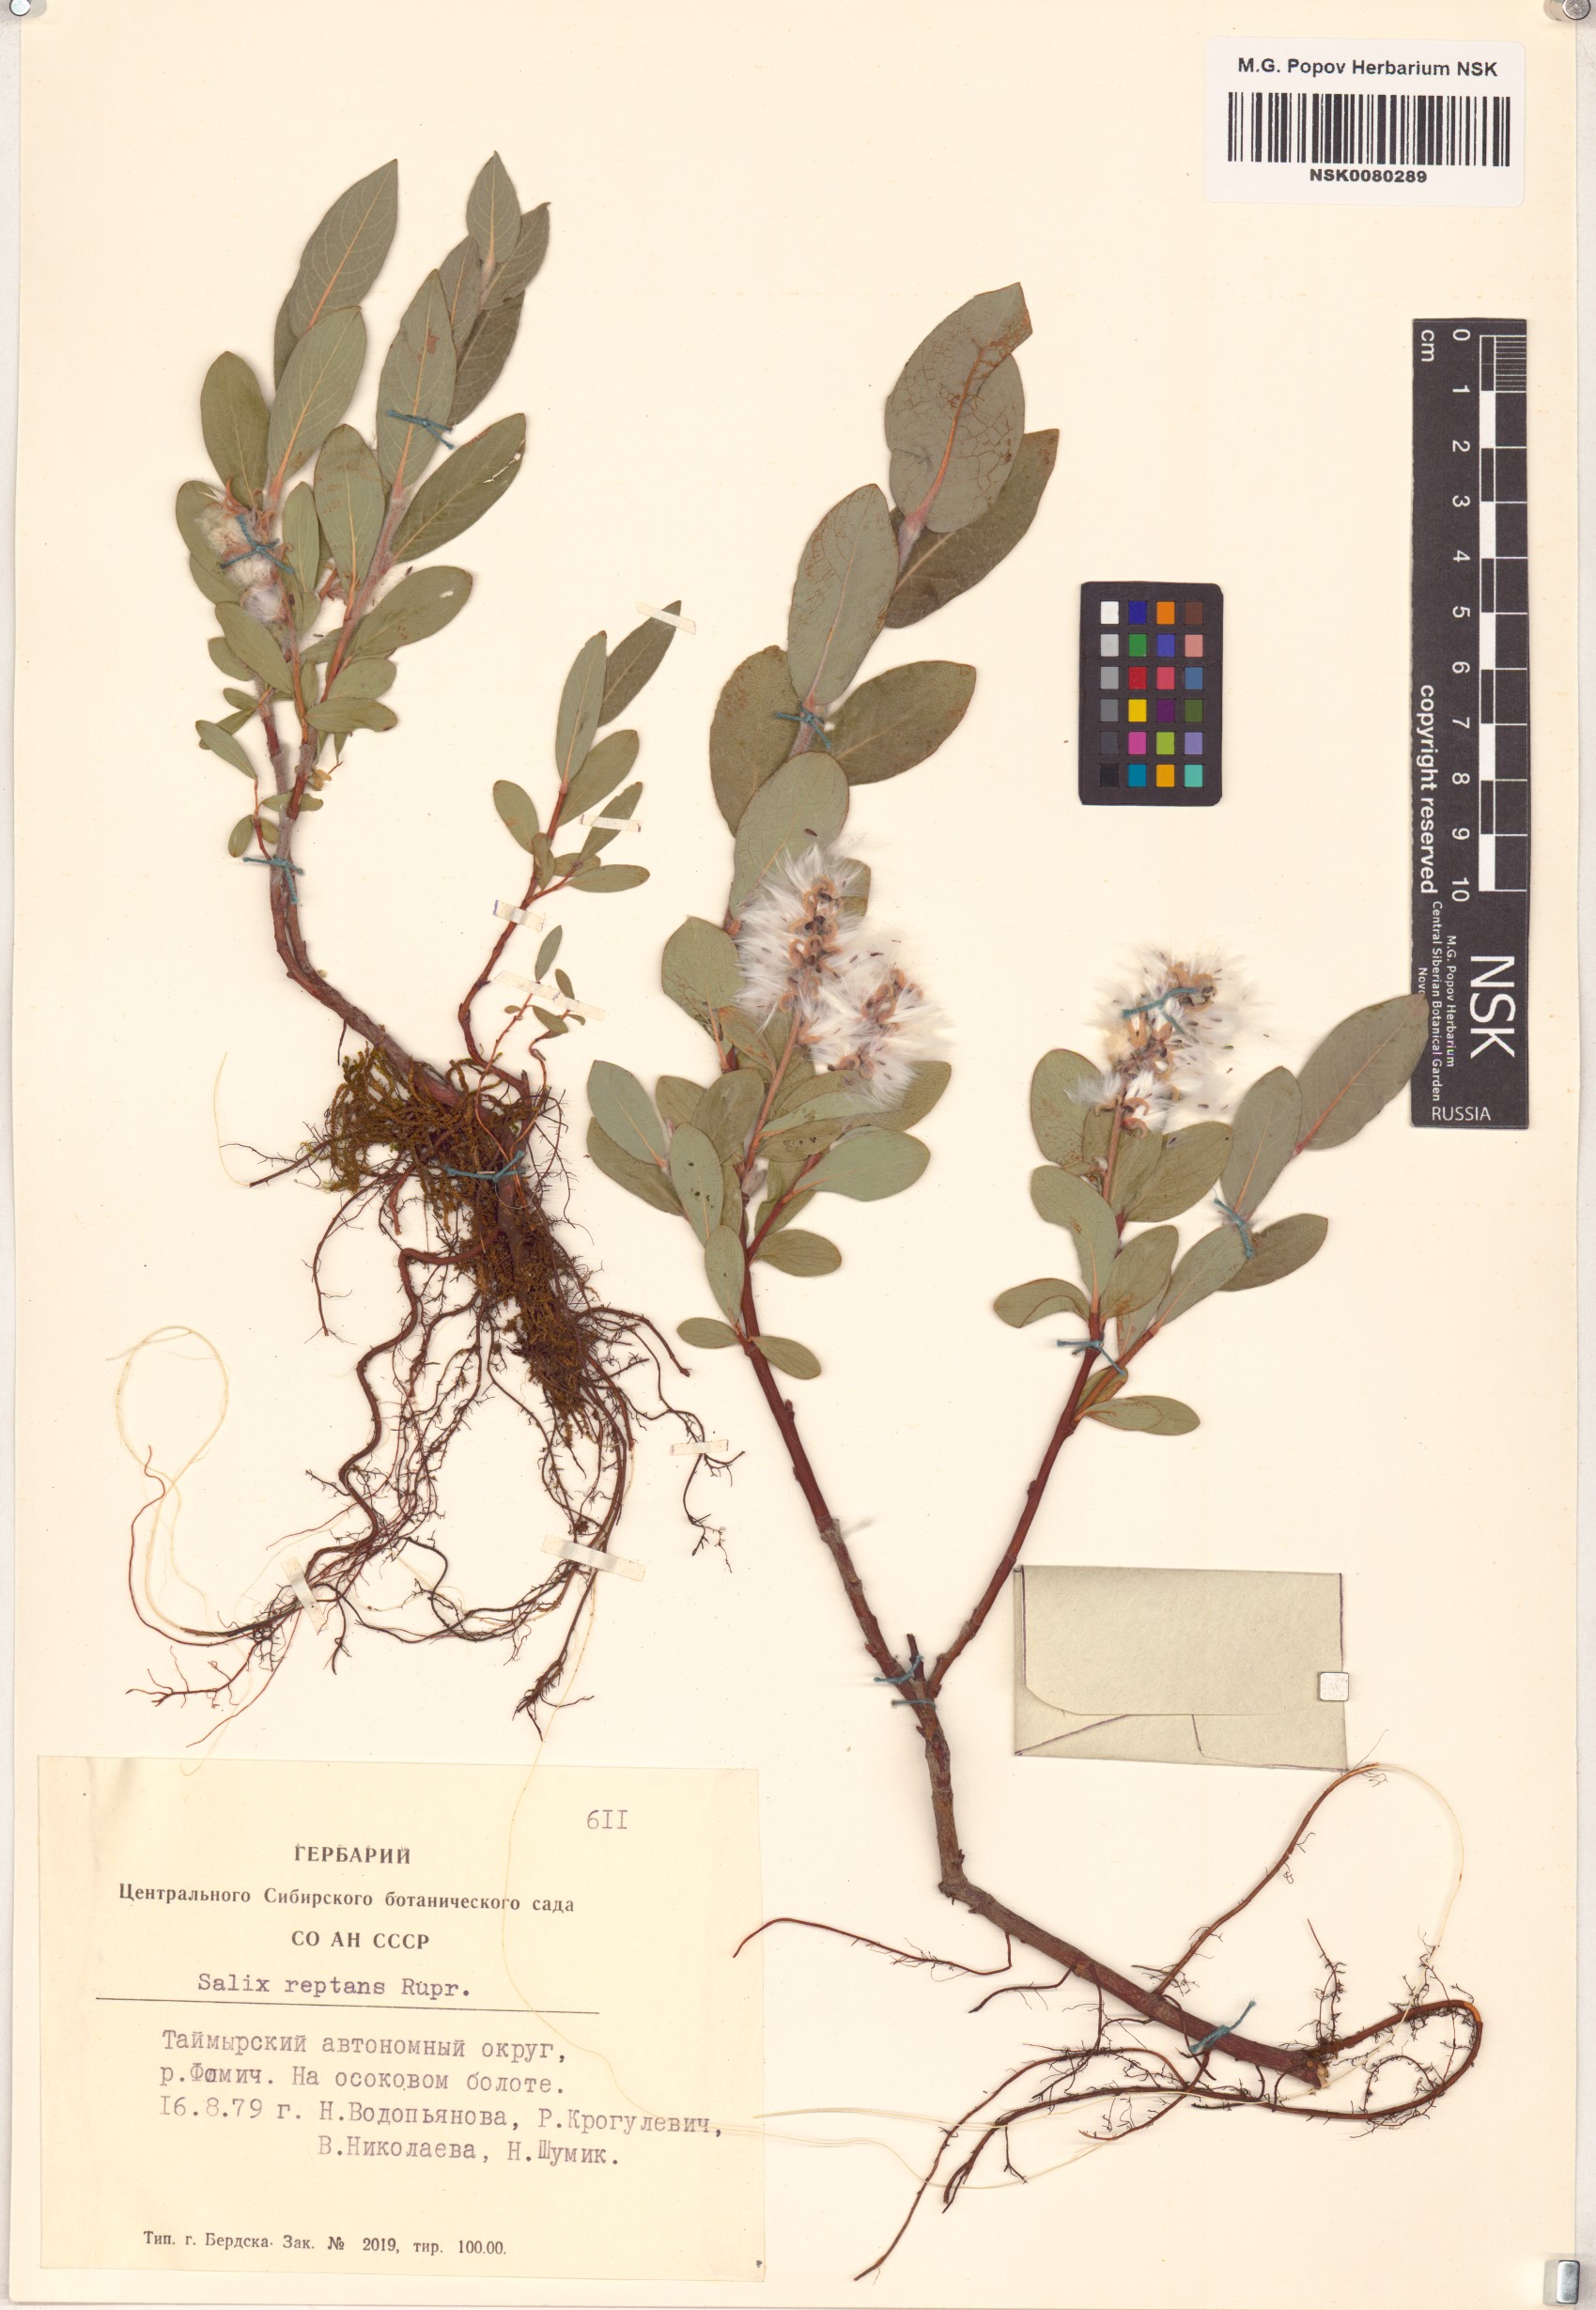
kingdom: Plantae
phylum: Tracheophyta
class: Magnoliopsida
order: Malpighiales
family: Salicaceae
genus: Salix
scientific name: Salix reptans
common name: Arctic creeping willow
